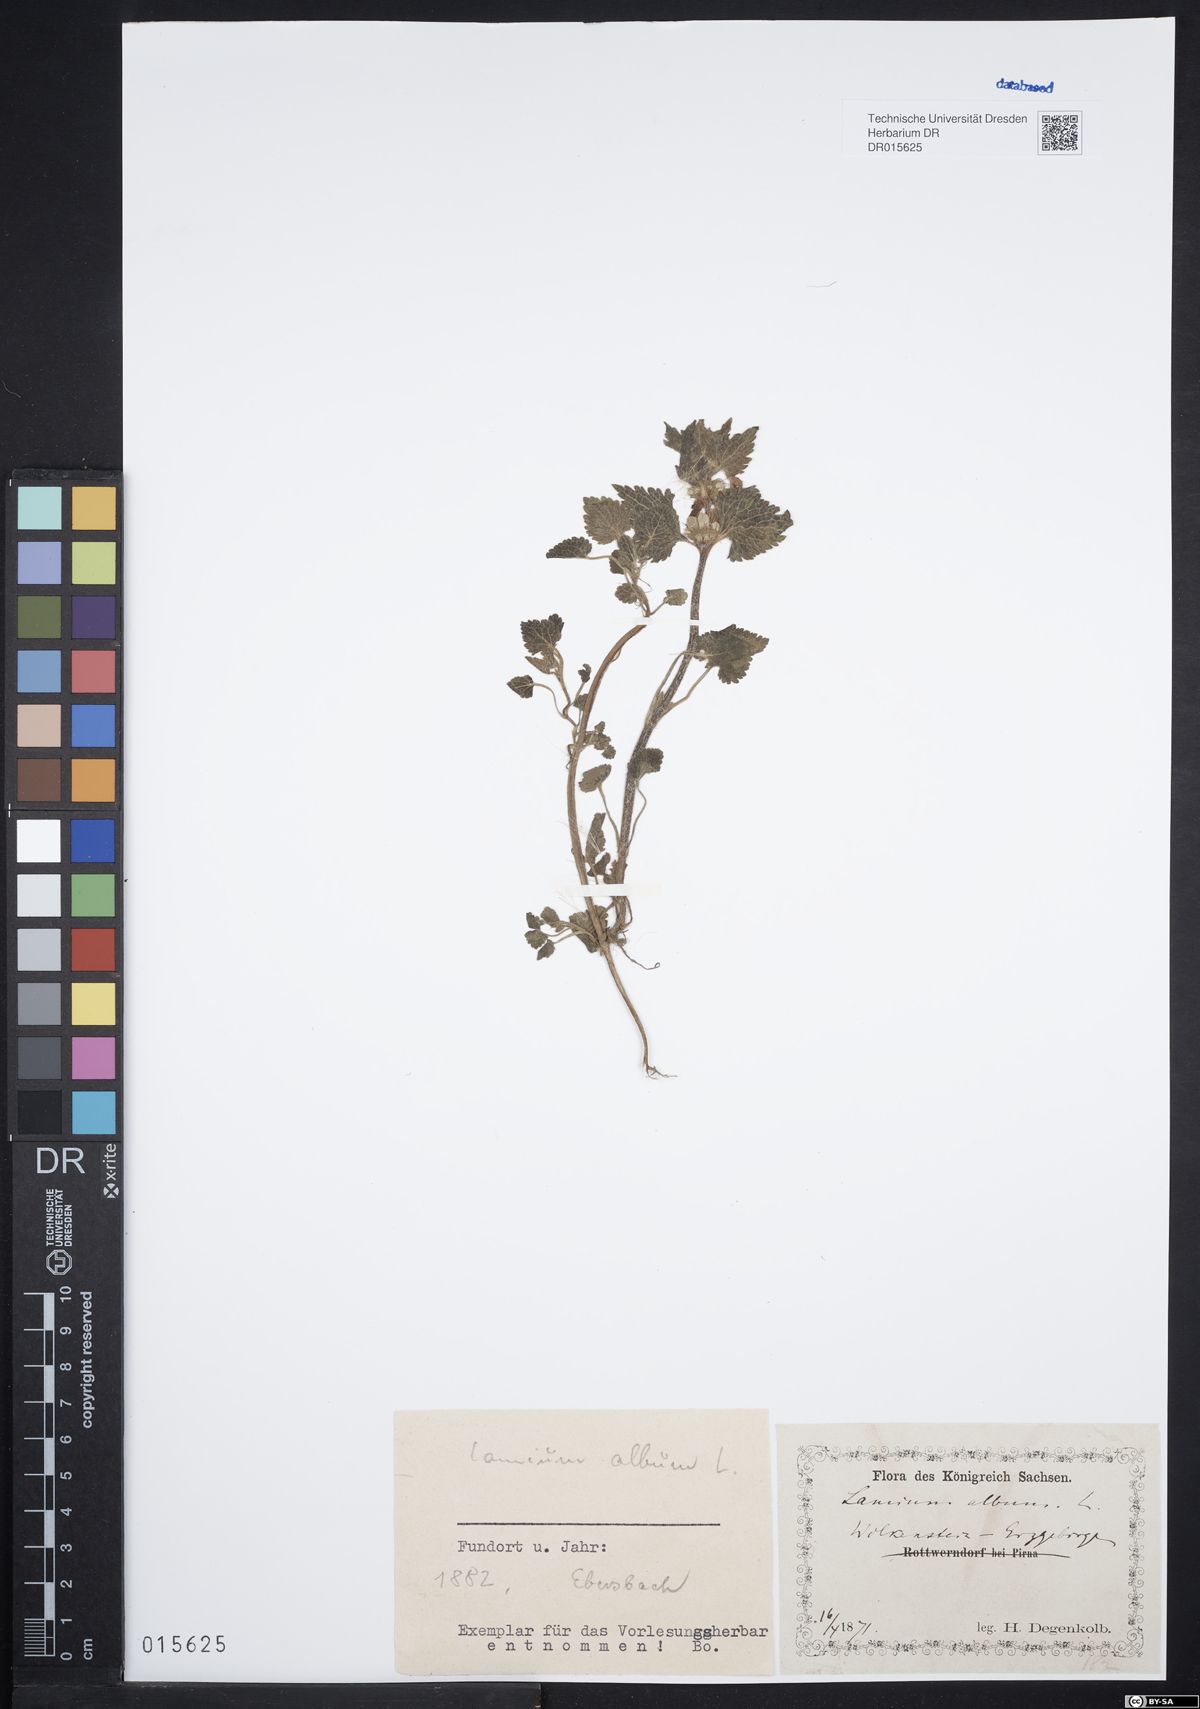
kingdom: Plantae
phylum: Tracheophyta
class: Magnoliopsida
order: Lamiales
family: Lamiaceae
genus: Lamium
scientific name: Lamium album
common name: White dead-nettle
